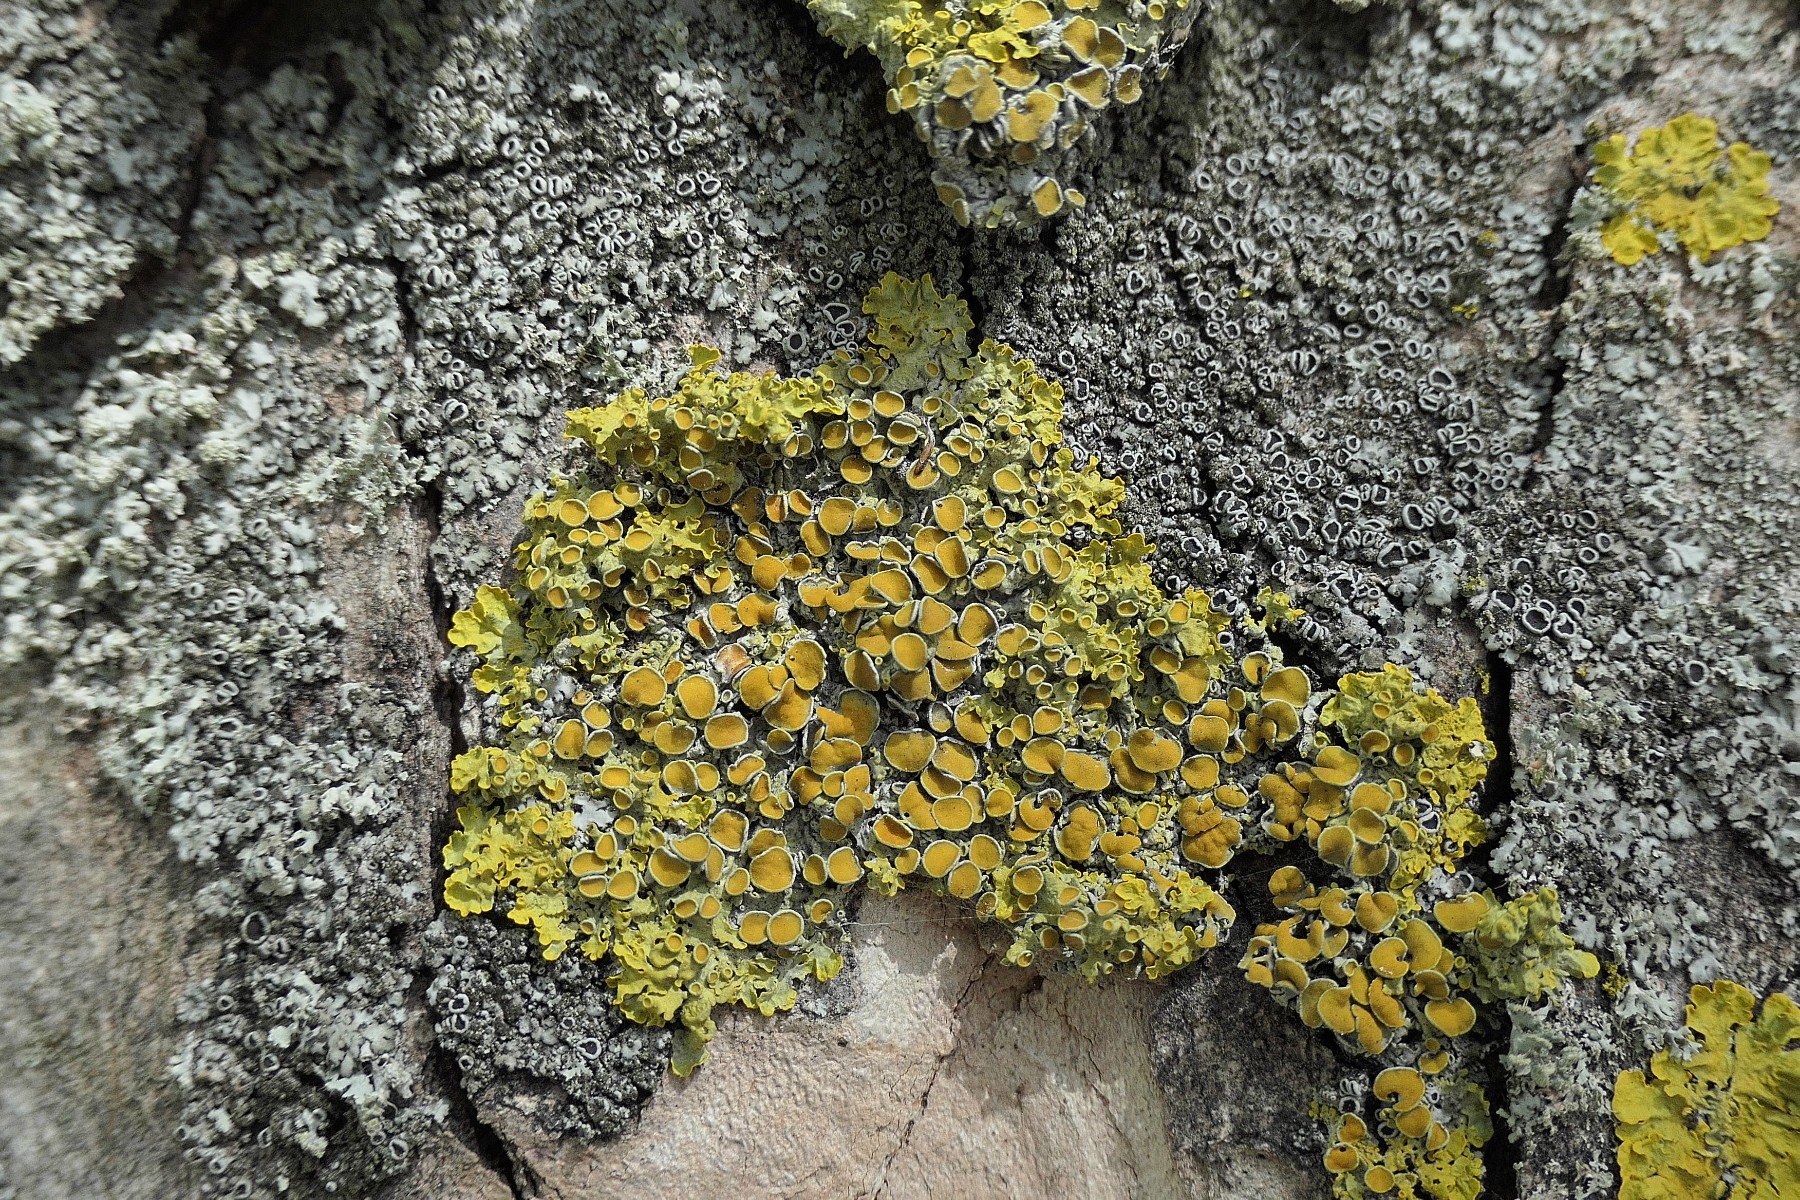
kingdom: Fungi
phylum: Ascomycota
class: Lecanoromycetes
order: Teloschistales
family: Teloschistaceae
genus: Xanthoria
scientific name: Xanthoria parietina
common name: almindelig væggelav
